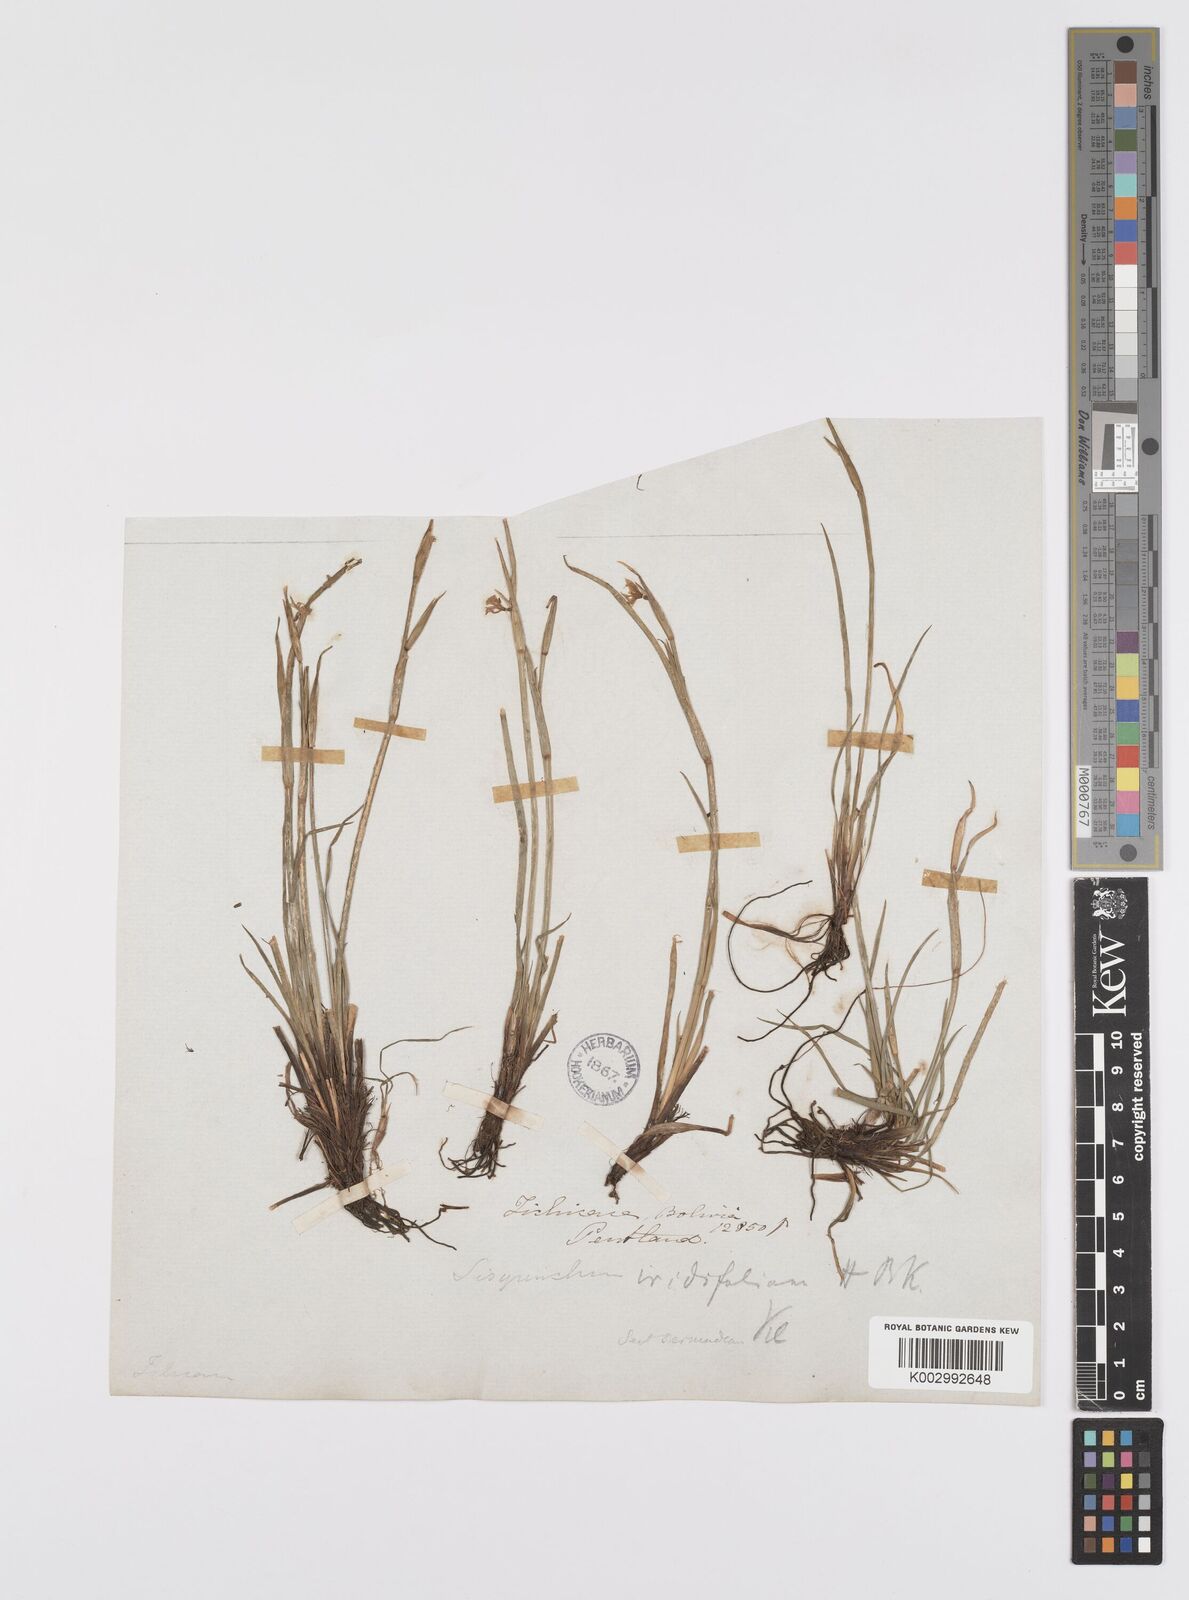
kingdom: Plantae
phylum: Tracheophyta
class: Liliopsida
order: Asparagales
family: Iridaceae
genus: Sisyrinchium
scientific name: Sisyrinchium
